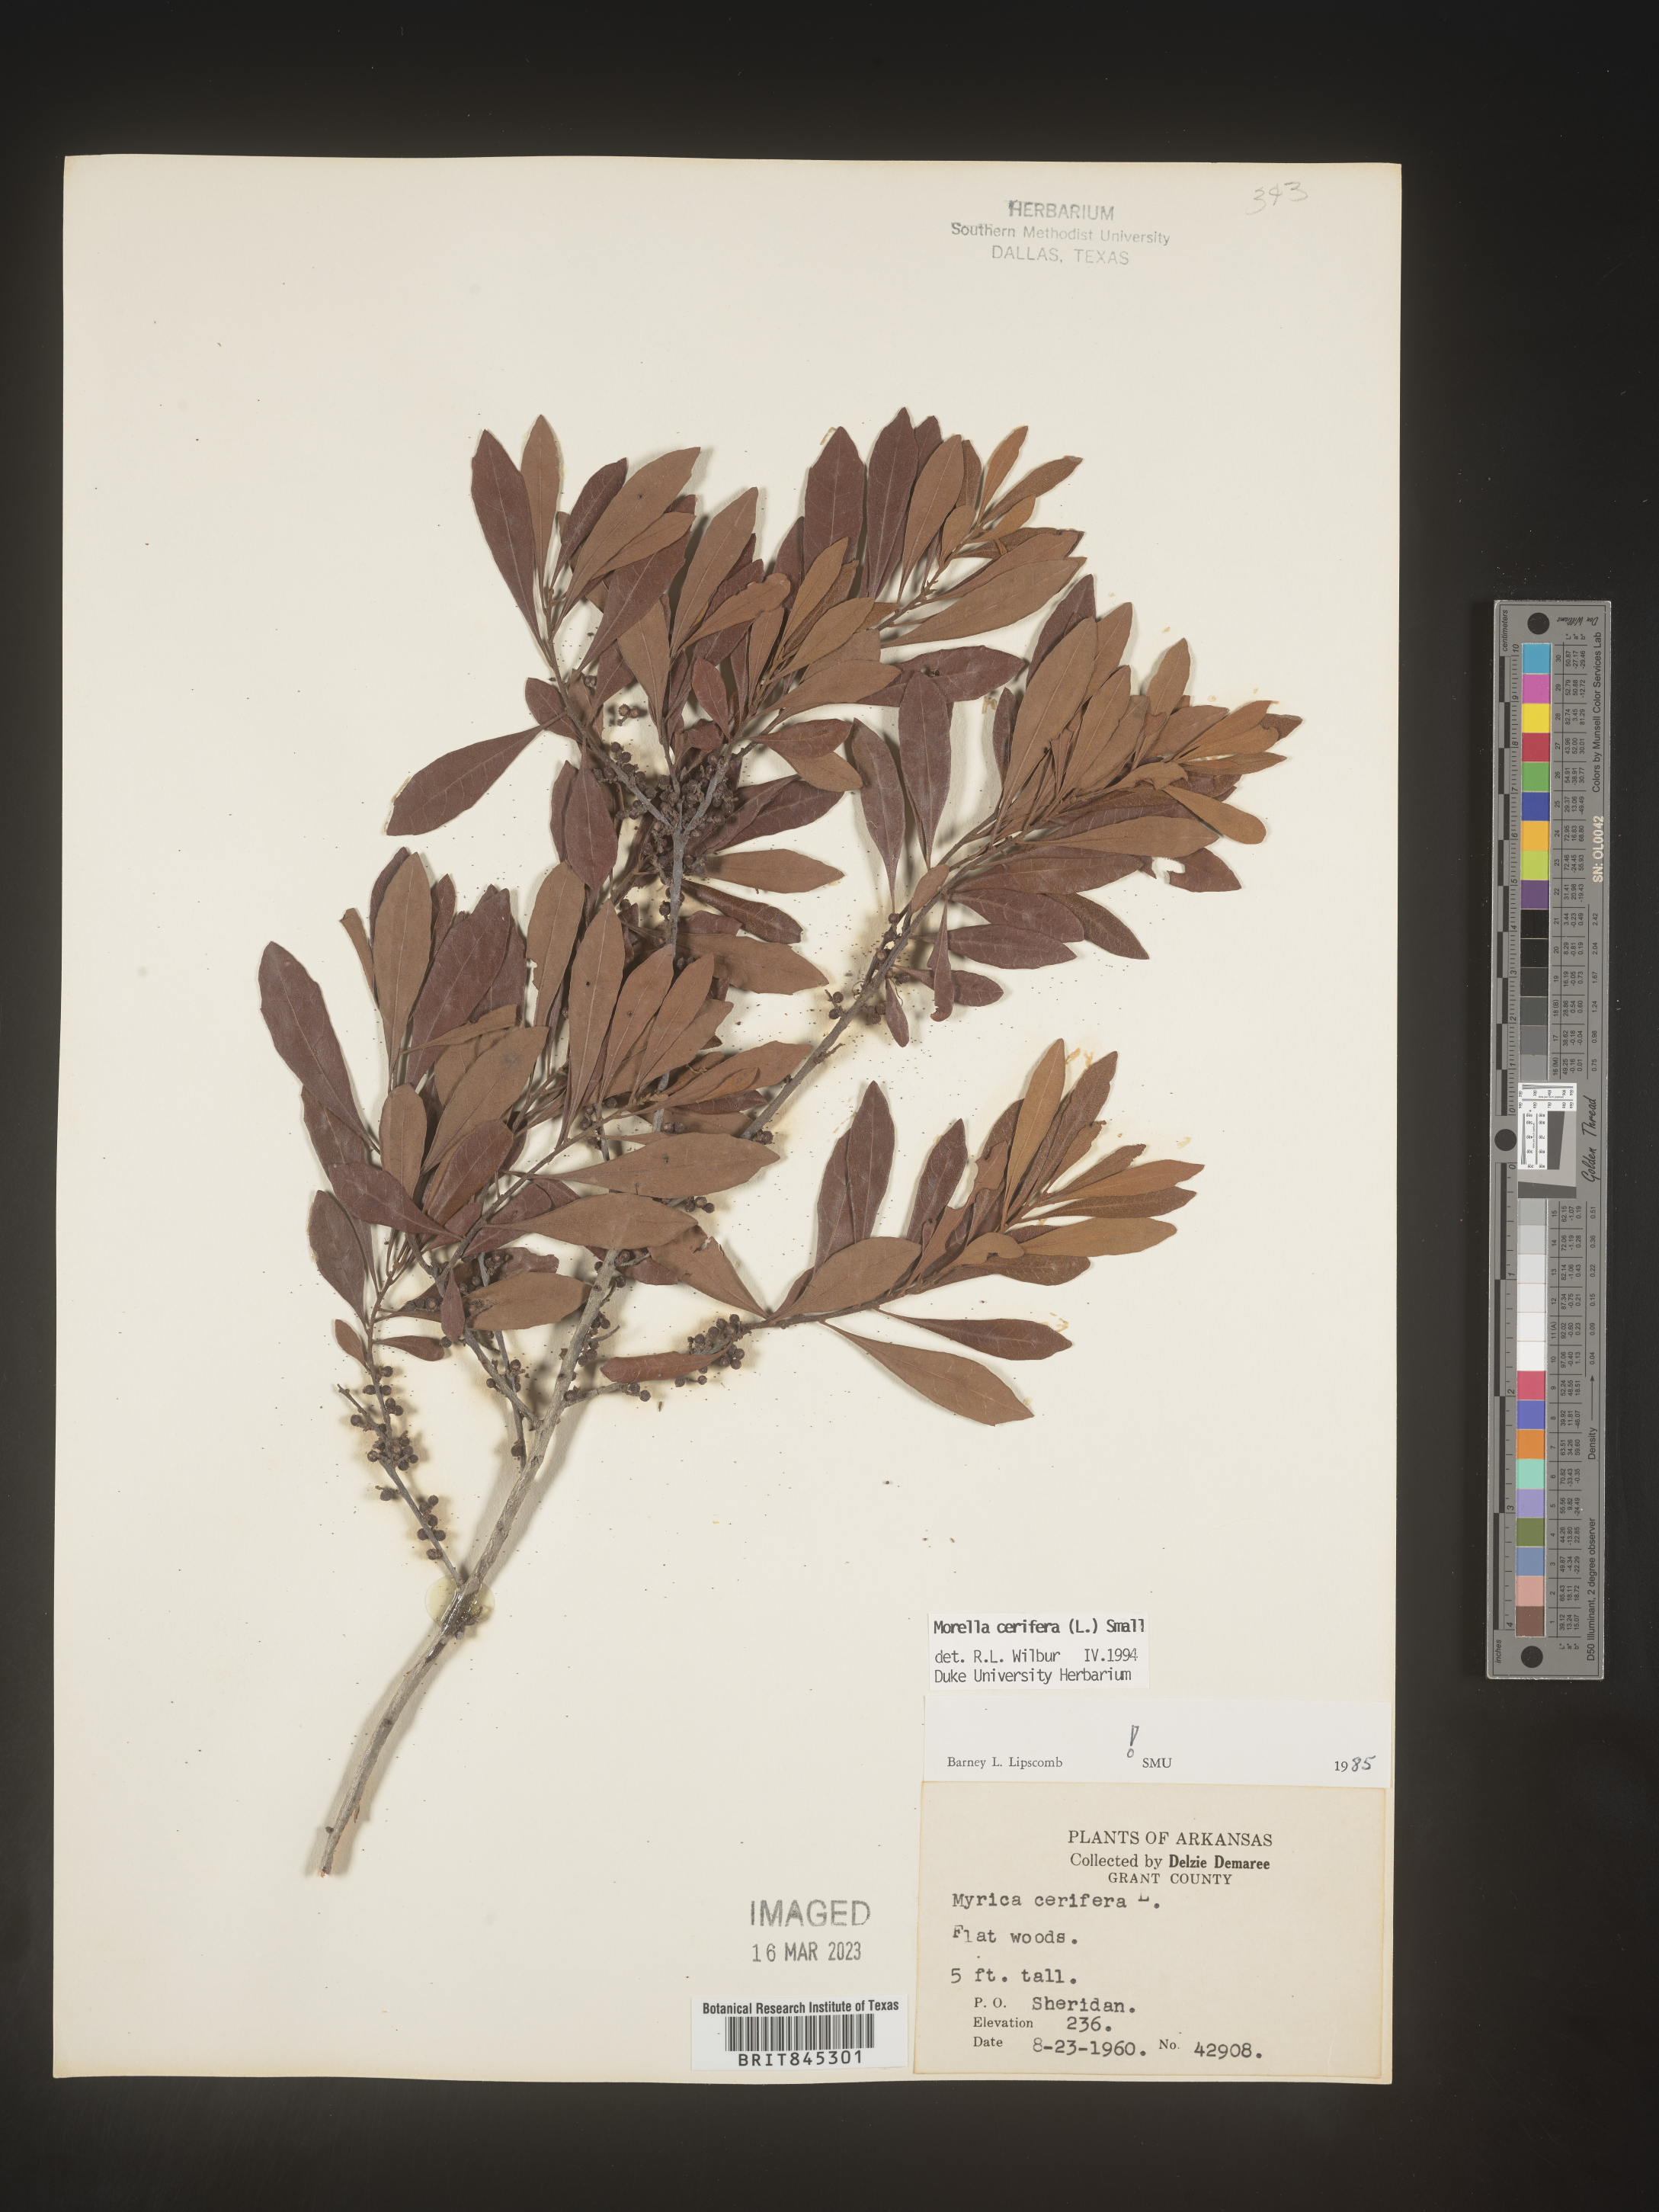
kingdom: Plantae
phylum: Tracheophyta
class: Magnoliopsida
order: Fagales
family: Myricaceae
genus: Morella
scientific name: Morella cerifera
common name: Wax myrtle
